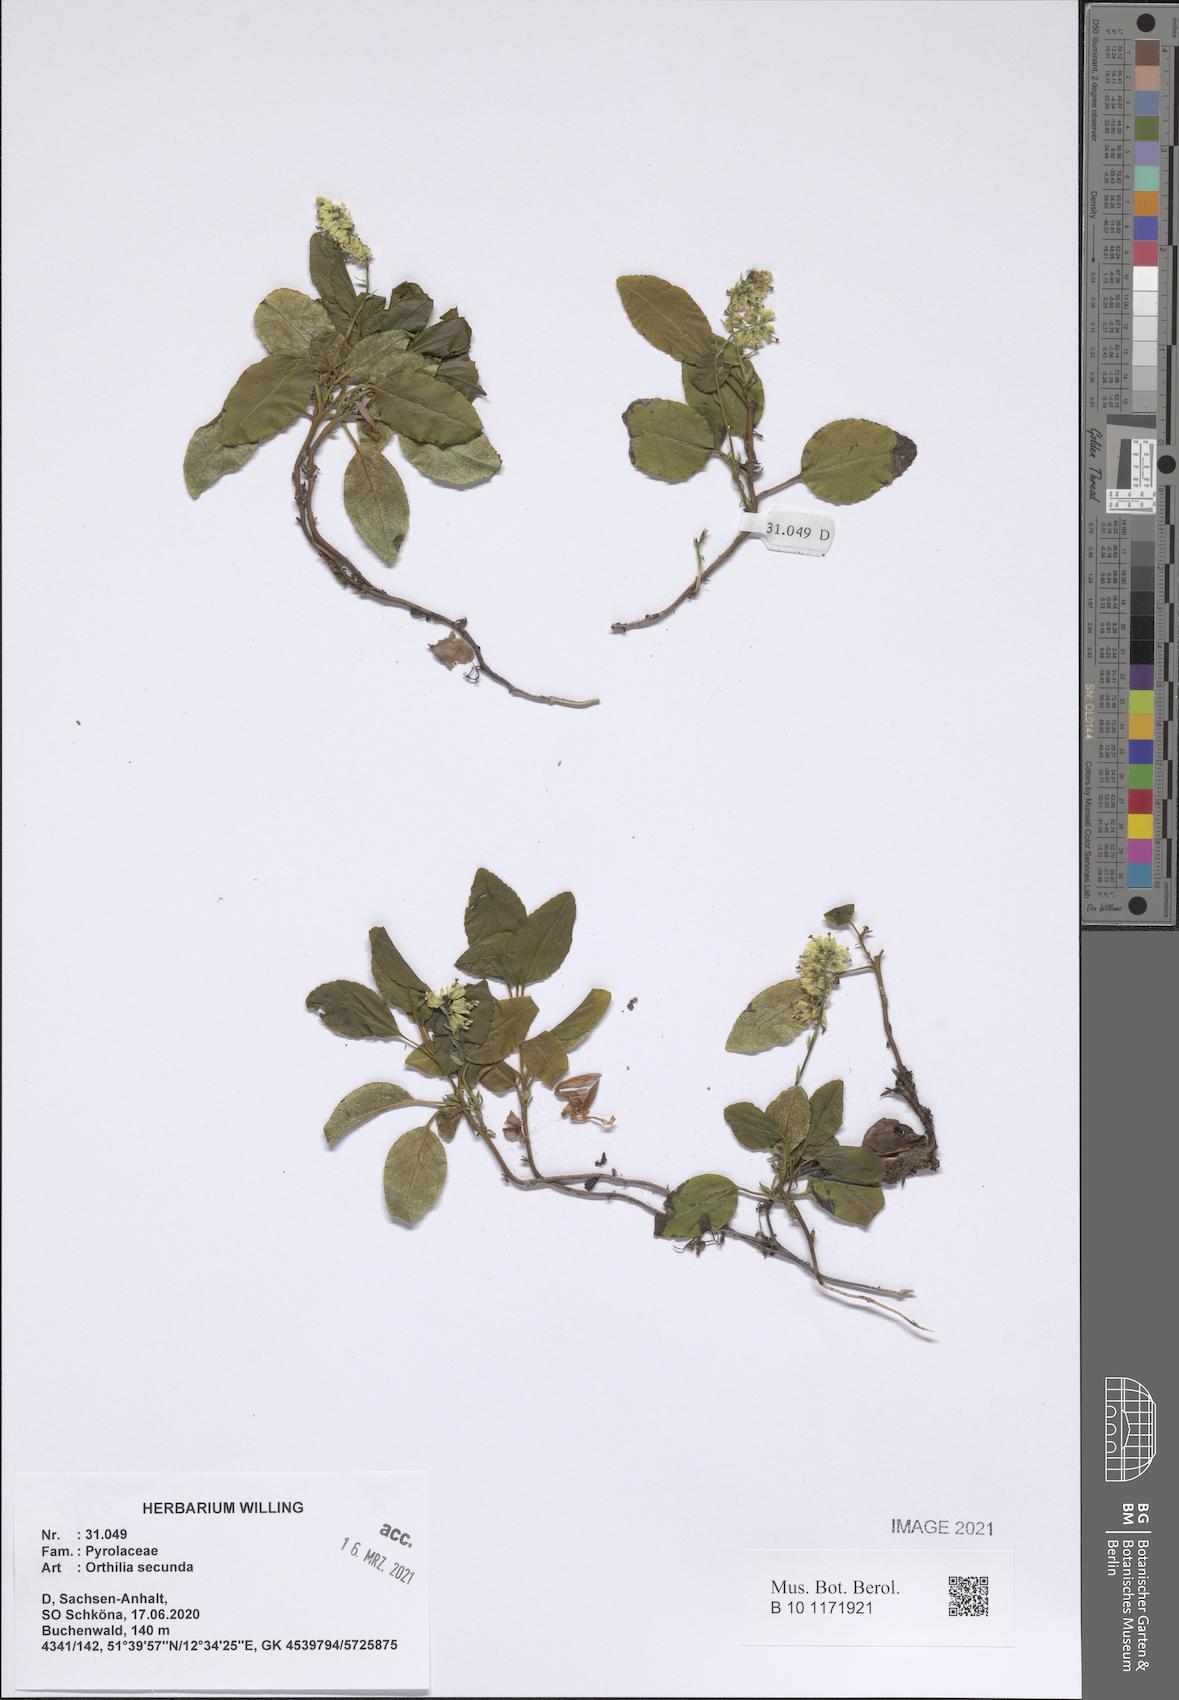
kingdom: Plantae
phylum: Tracheophyta
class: Magnoliopsida
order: Ericales
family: Ericaceae
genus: Orthilia
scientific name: Orthilia secunda
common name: One-sided orthilia
